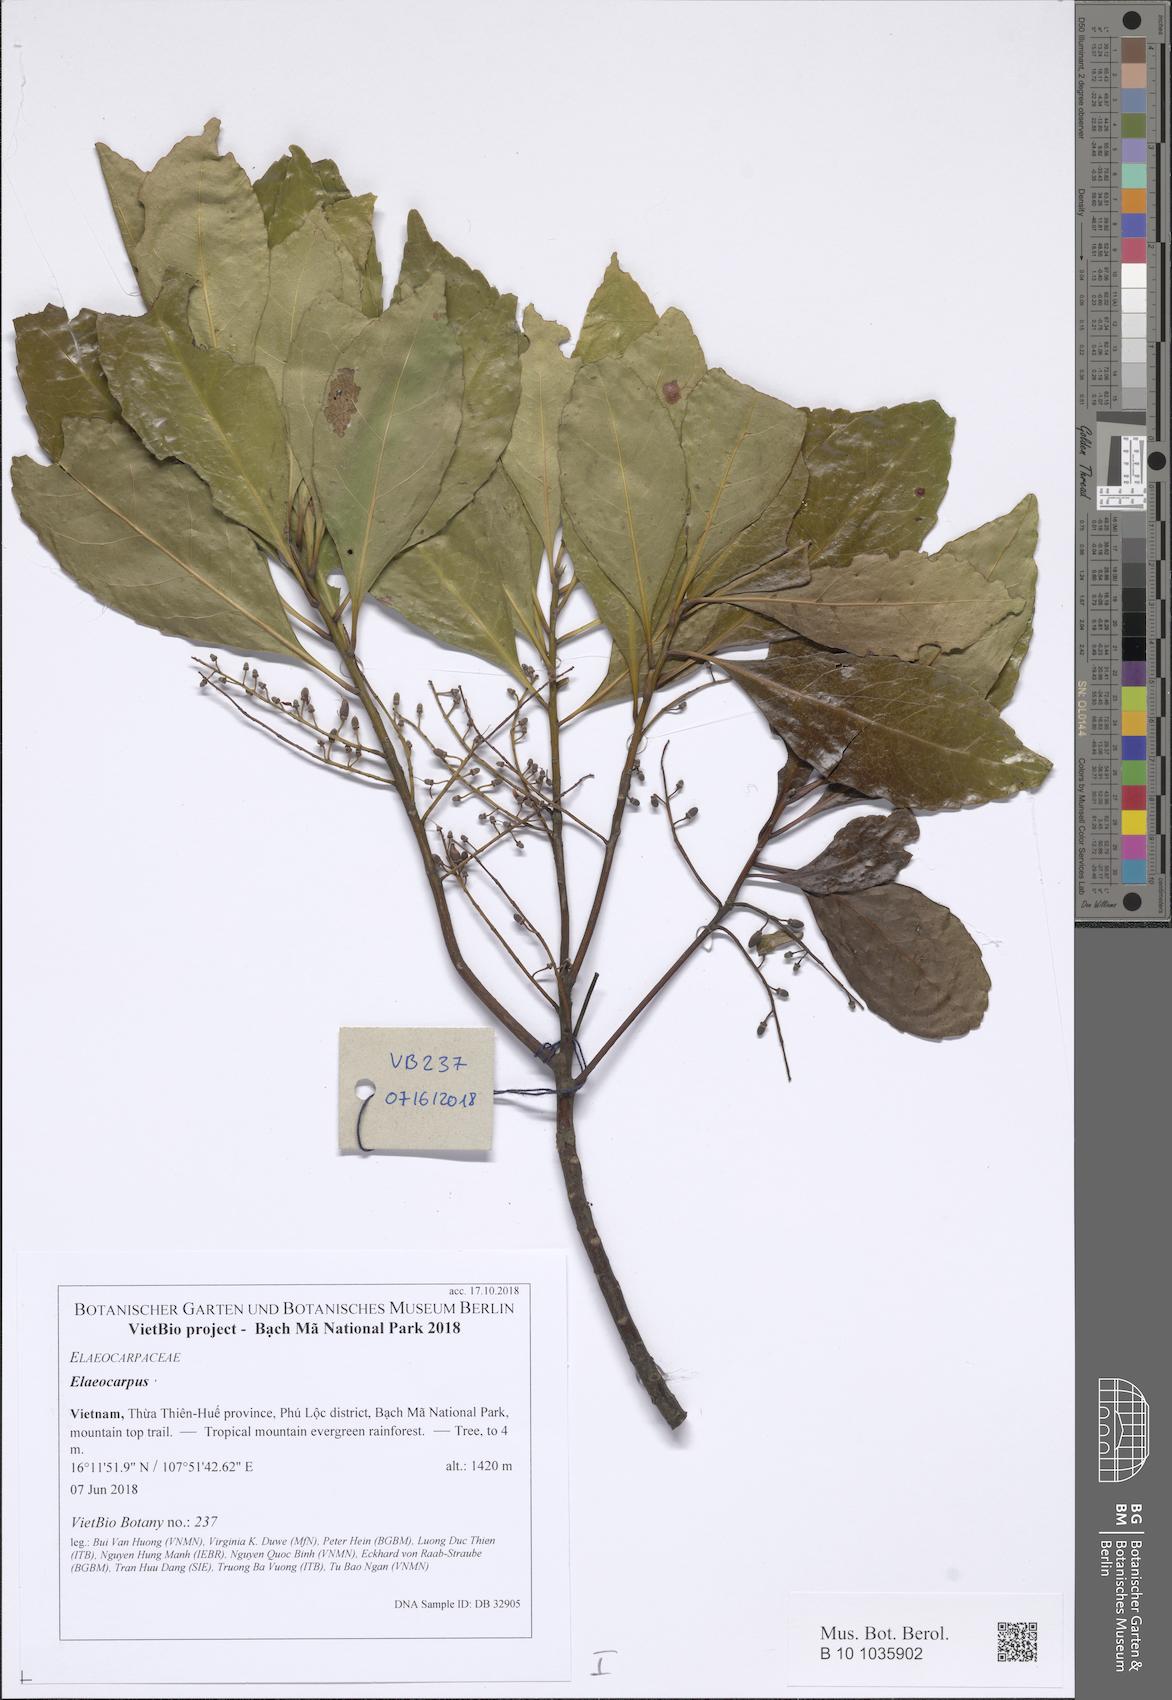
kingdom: Plantae
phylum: Tracheophyta
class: Magnoliopsida
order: Oxalidales
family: Elaeocarpaceae
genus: Elaeocarpus
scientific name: Elaeocarpus
